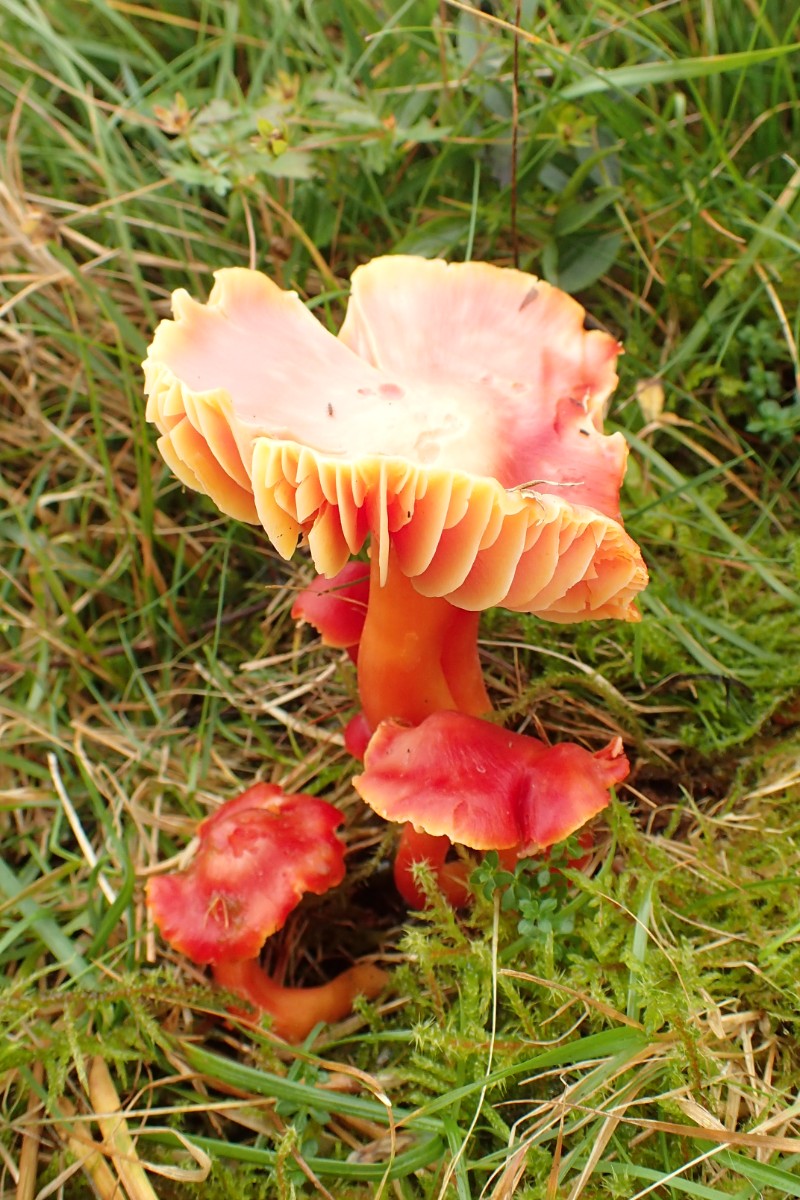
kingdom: Fungi
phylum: Basidiomycota
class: Agaricomycetes
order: Agaricales
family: Hygrophoraceae
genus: Hygrocybe
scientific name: Hygrocybe splendidissima
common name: knaldrød vokshat
